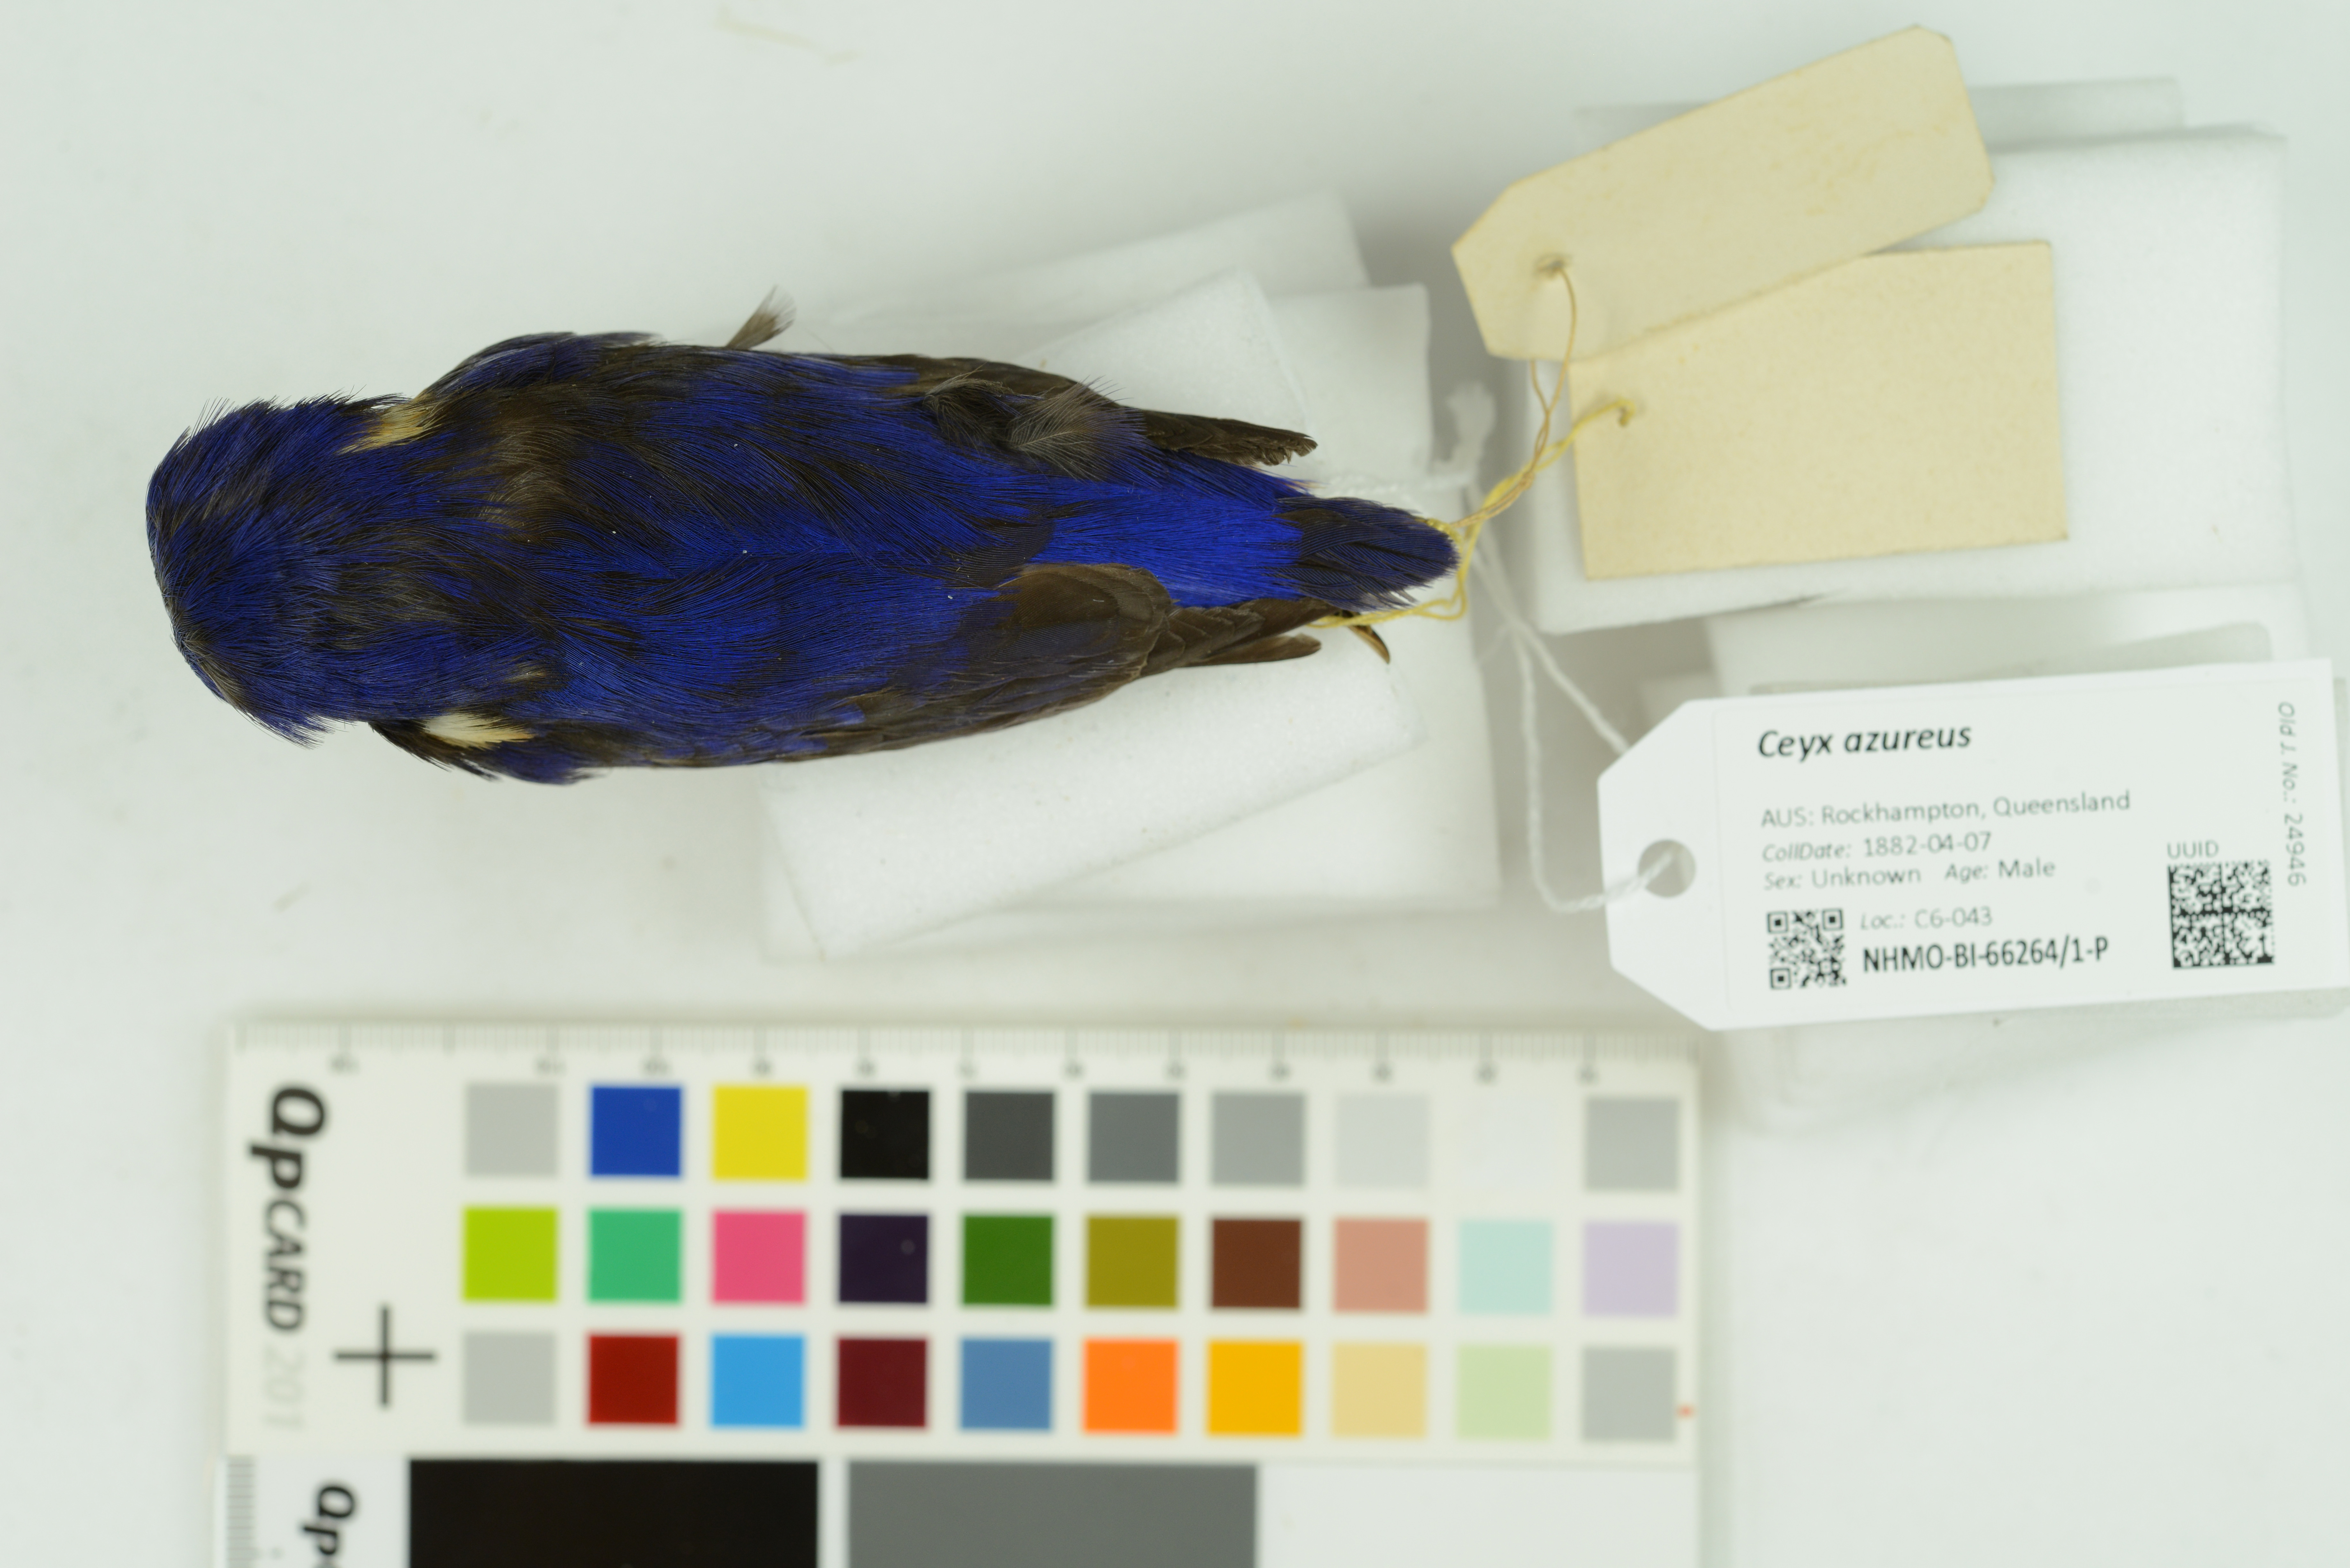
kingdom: Animalia
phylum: Chordata
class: Aves
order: Coraciiformes
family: Alcedinidae
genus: Ceyx
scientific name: Ceyx azureus
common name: Azure kingfisher
